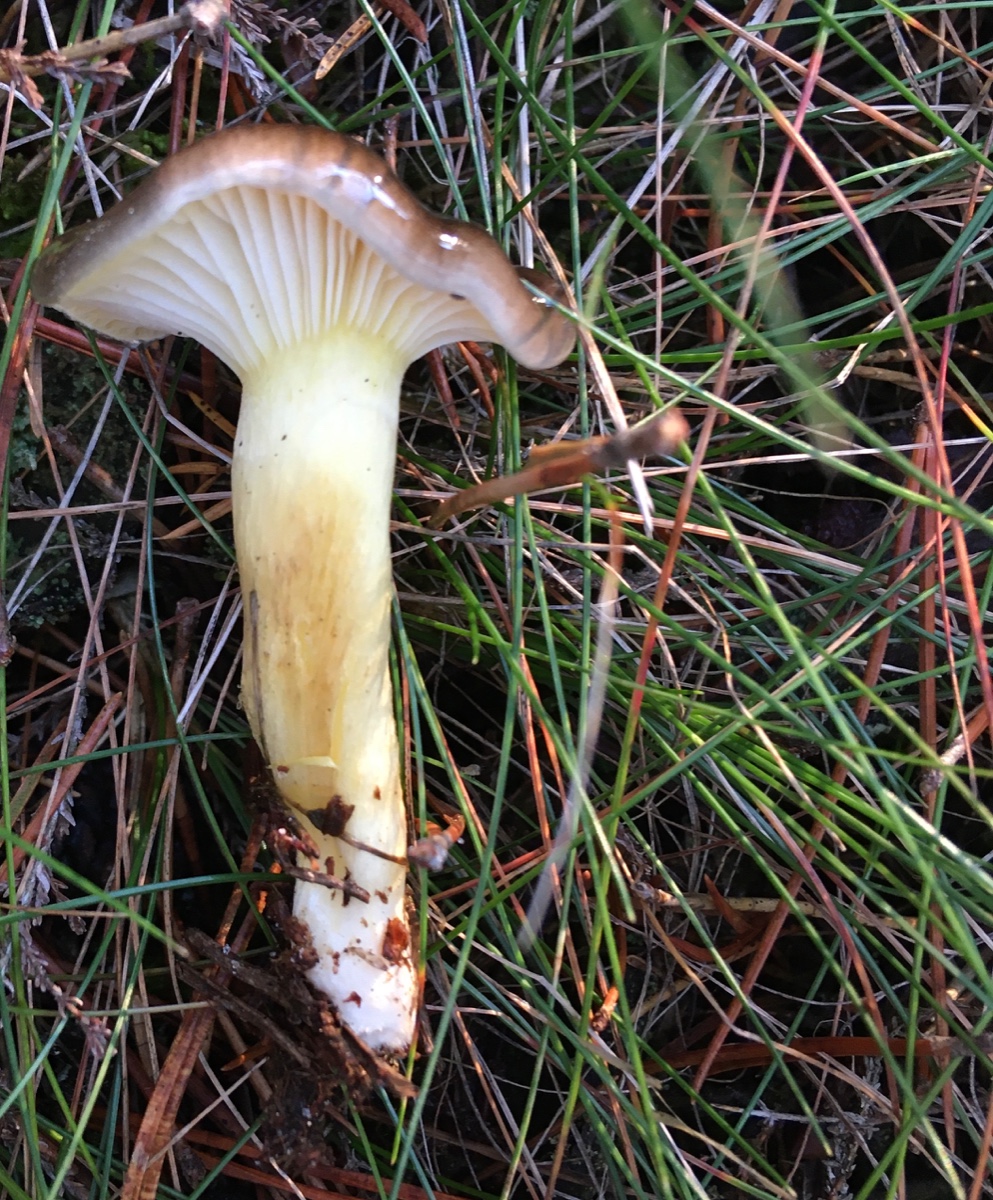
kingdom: Fungi
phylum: Basidiomycota
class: Agaricomycetes
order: Agaricales
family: Hygrophoraceae
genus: Hygrophorus
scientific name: Hygrophorus hypothejus
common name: frost-sneglehat
